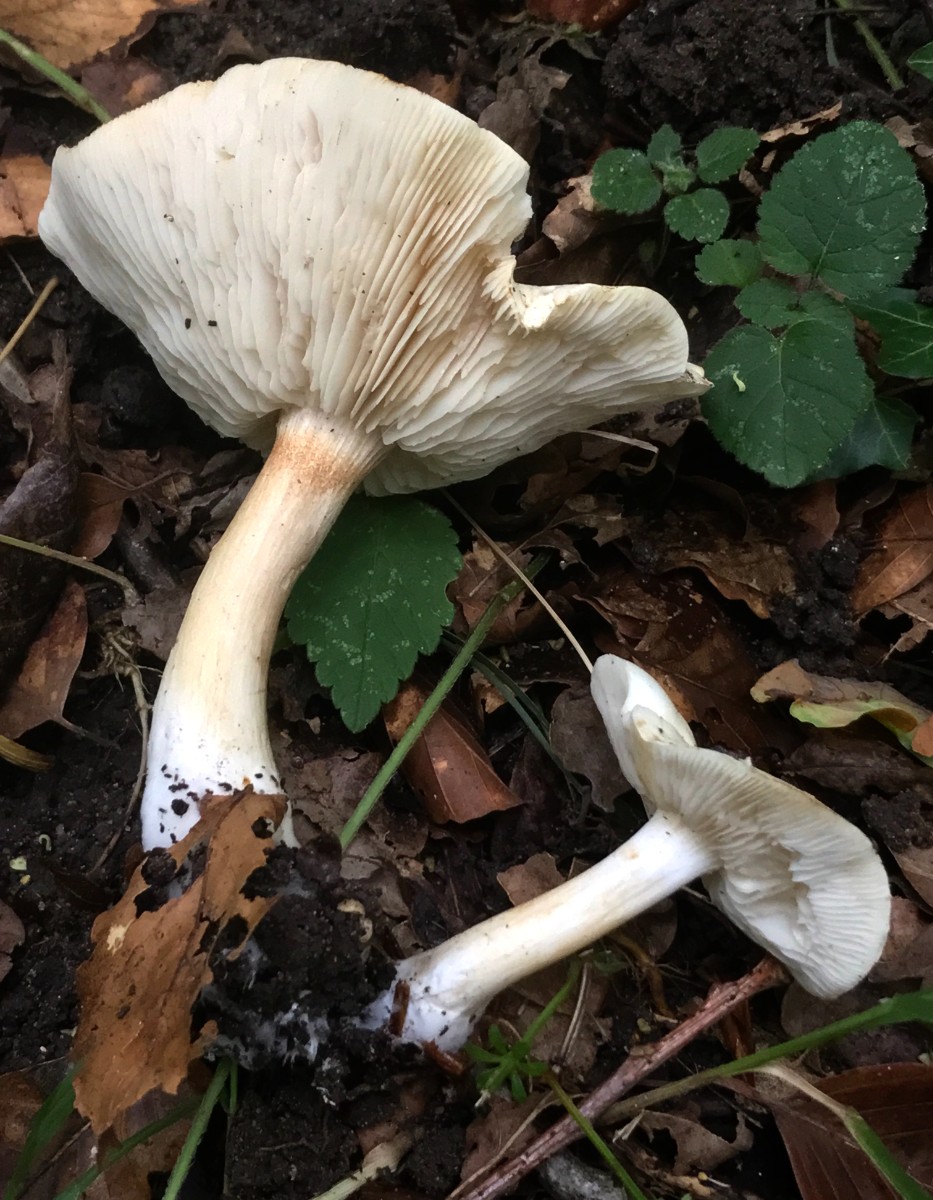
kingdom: Fungi
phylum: Basidiomycota
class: Agaricomycetes
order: Agaricales
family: Tricholomataceae
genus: Tricholoma
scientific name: Tricholoma album
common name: honning-ridderhat
